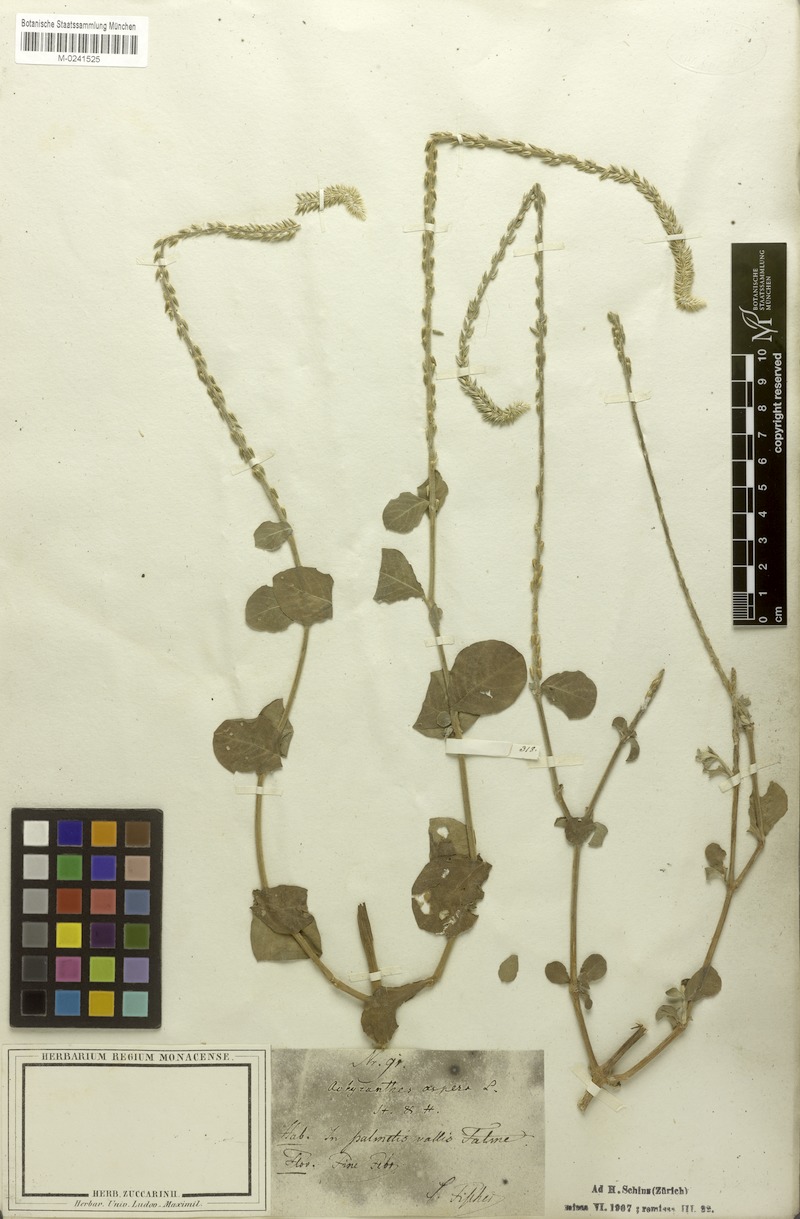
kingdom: Plantae
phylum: Tracheophyta
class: Magnoliopsida
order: Caryophyllales
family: Amaranthaceae
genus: Achyranthes
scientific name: Achyranthes aspera
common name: Devil's horsewhip
